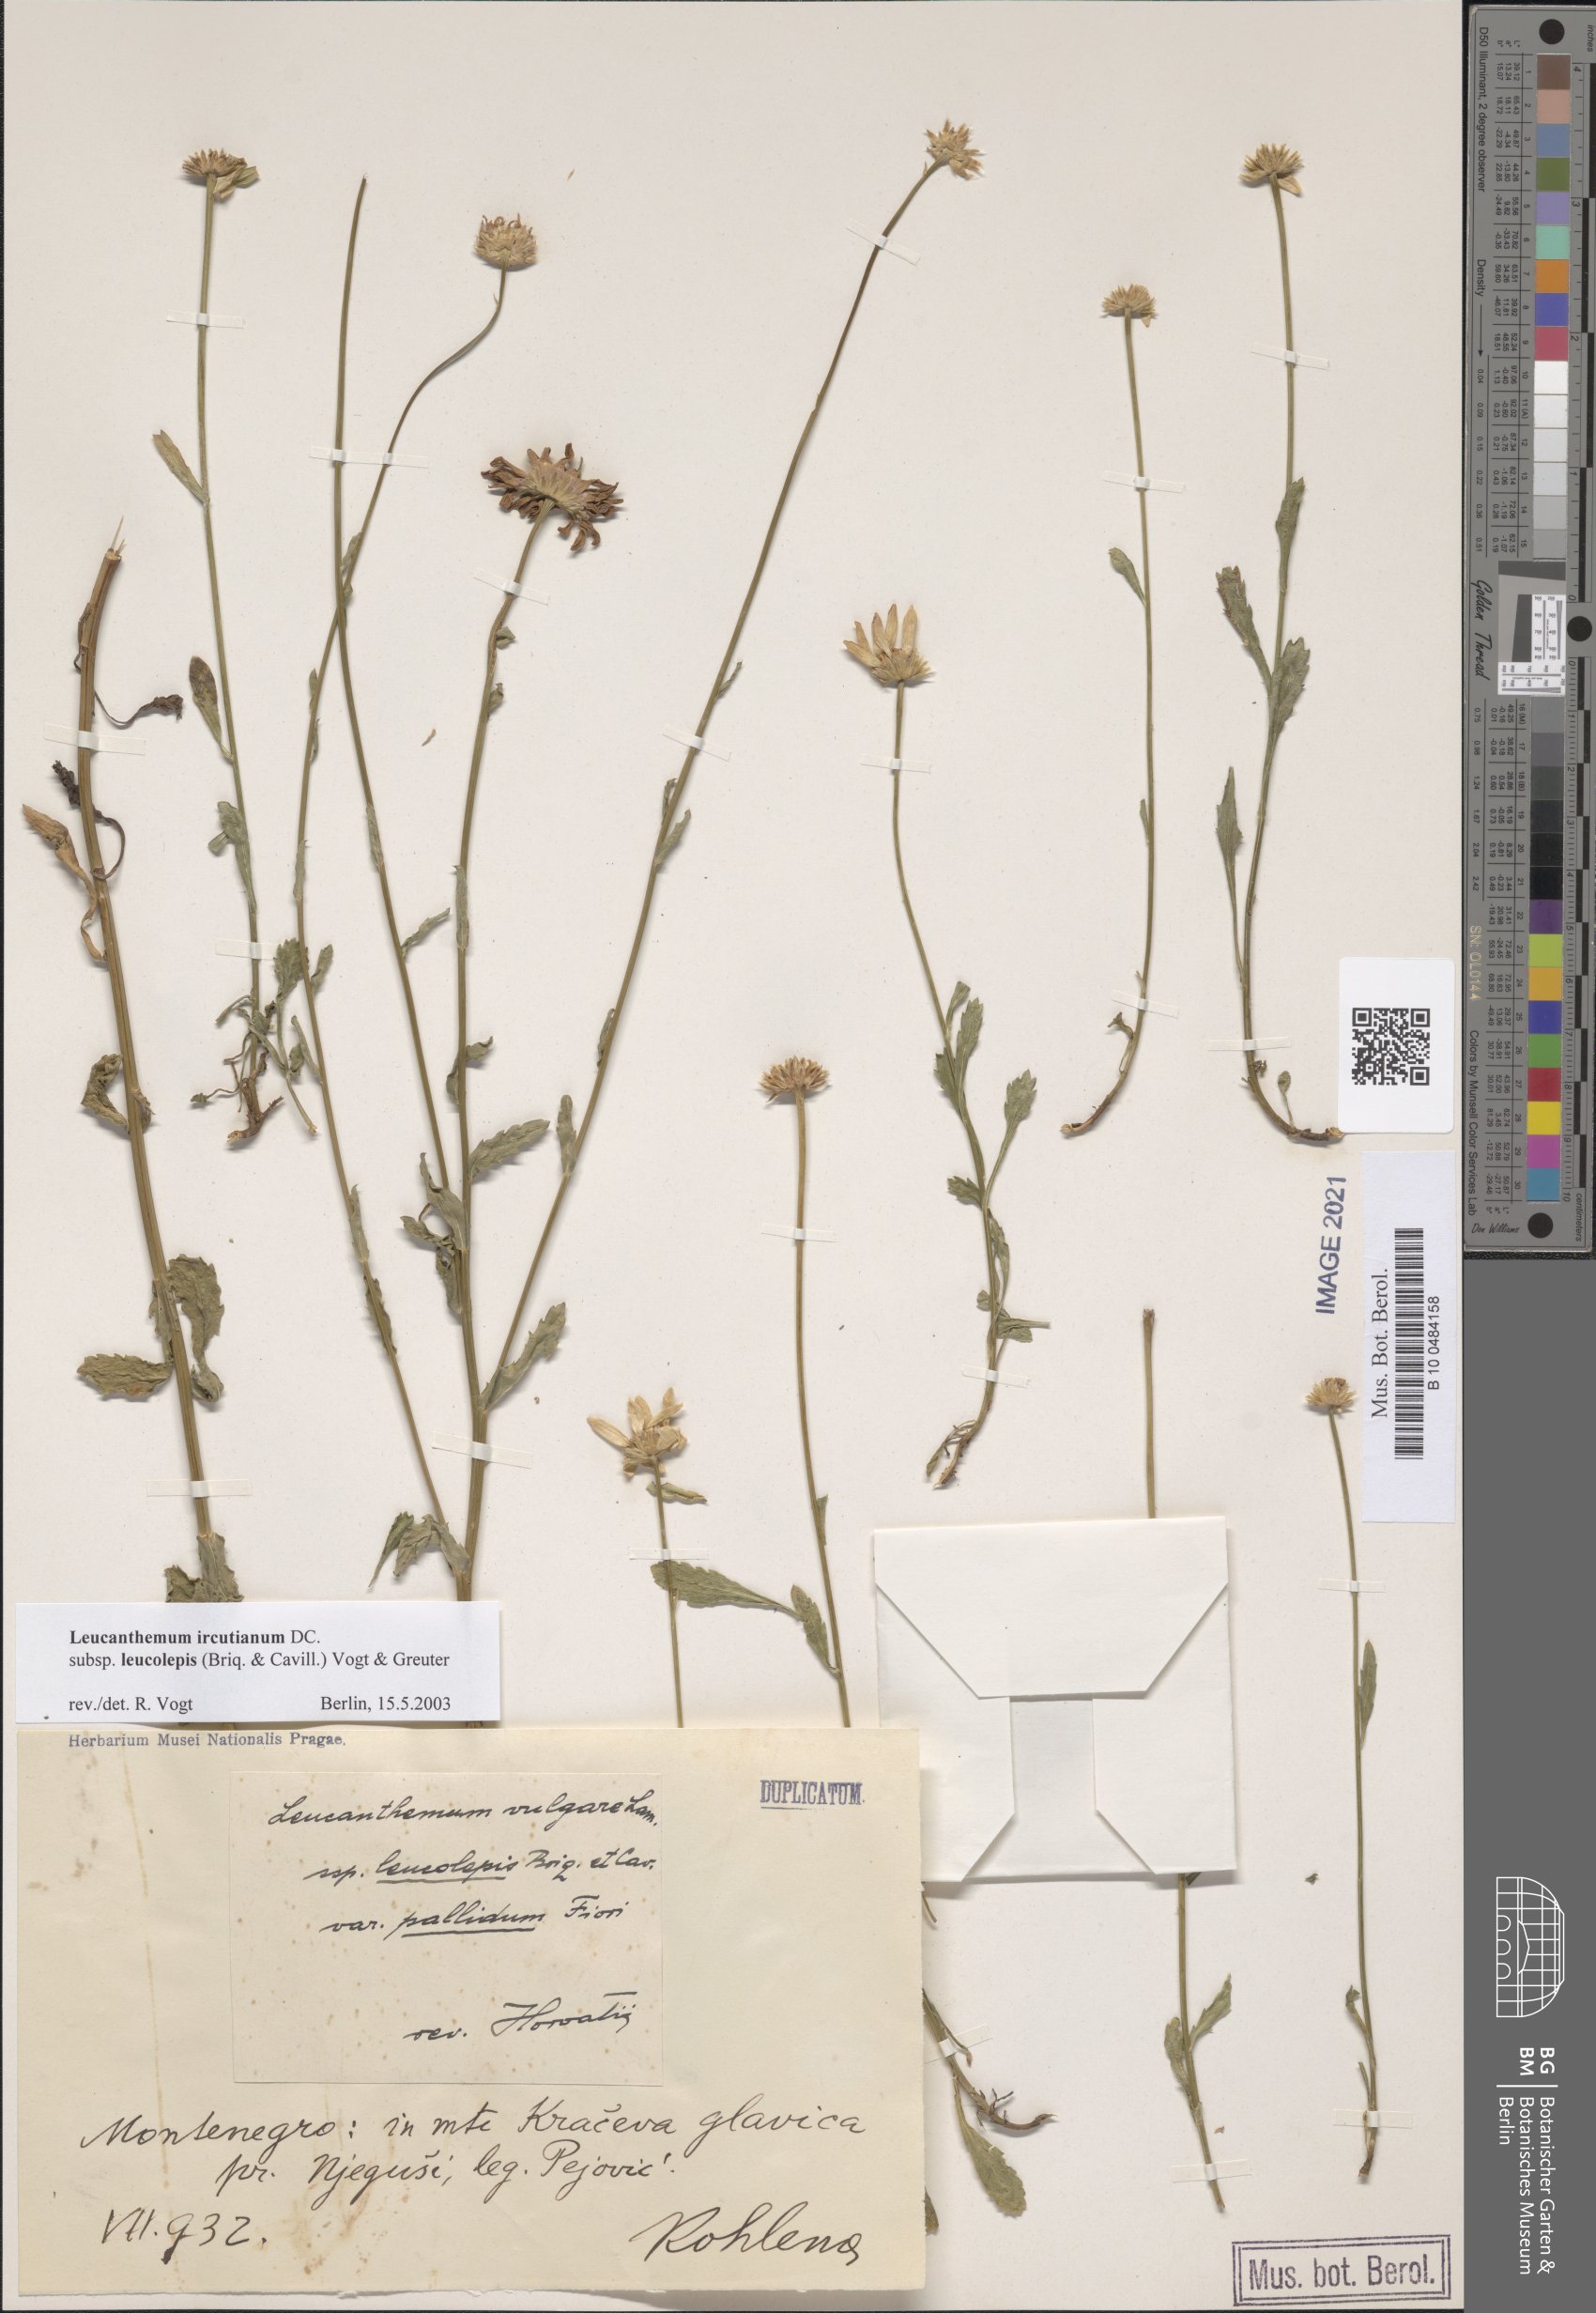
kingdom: Plantae
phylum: Tracheophyta
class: Magnoliopsida
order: Asterales
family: Asteraceae
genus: Leucanthemum
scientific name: Leucanthemum ircutianum
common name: Daisy
